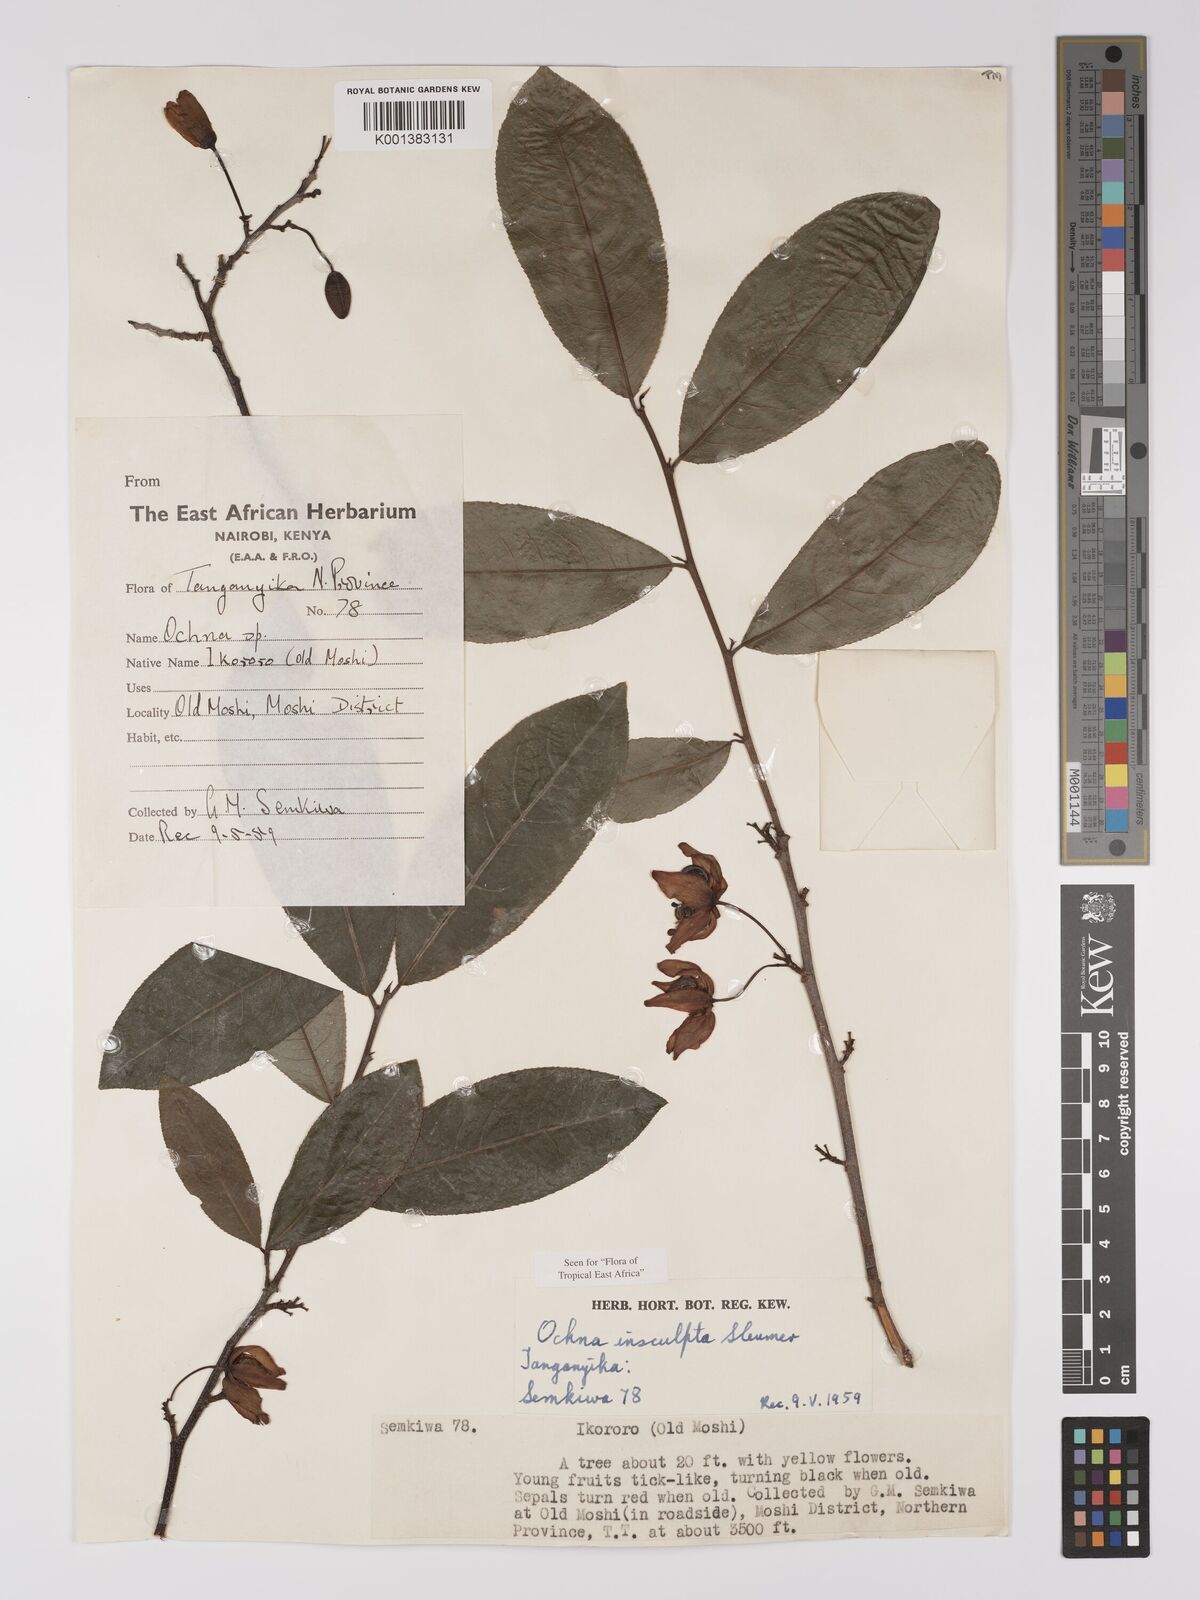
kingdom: Plantae
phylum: Tracheophyta
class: Magnoliopsida
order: Malpighiales
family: Ochnaceae
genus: Ochna
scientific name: Ochna insculpta
